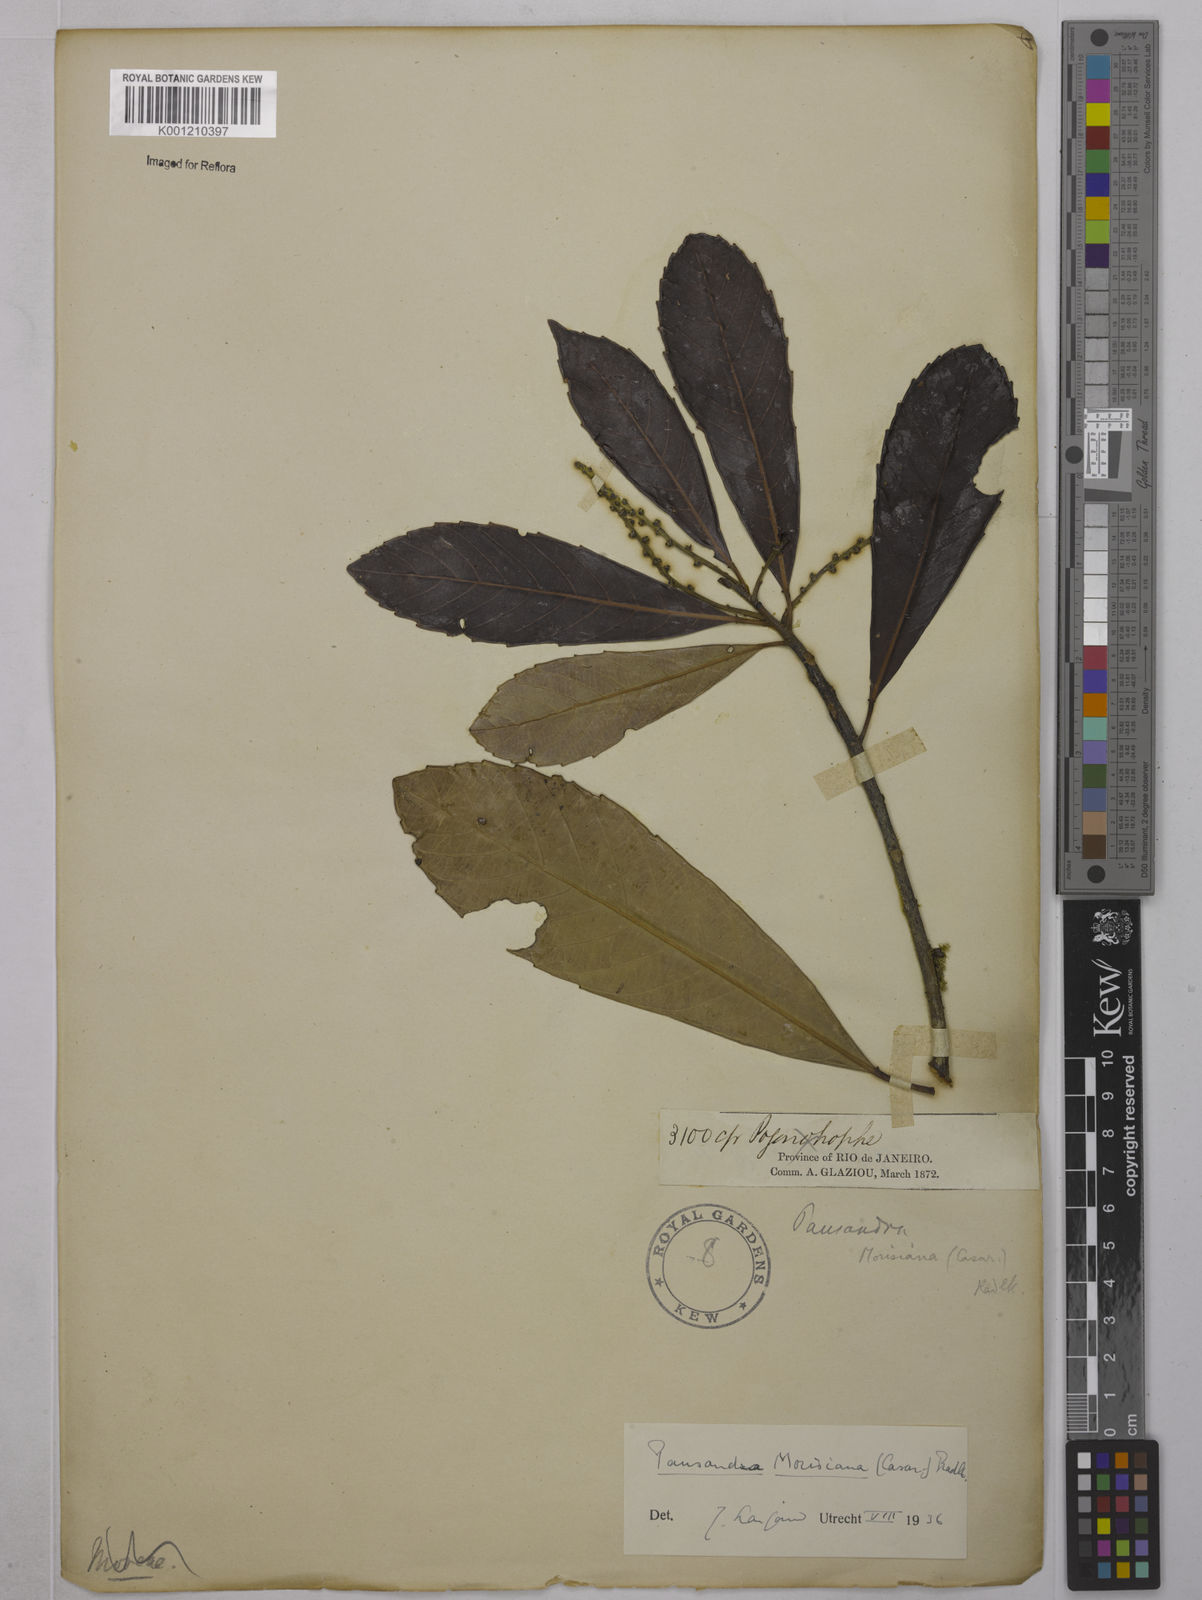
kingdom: Plantae
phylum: Tracheophyta
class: Magnoliopsida
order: Malpighiales
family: Euphorbiaceae
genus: Pausandra
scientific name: Pausandra morisiana
